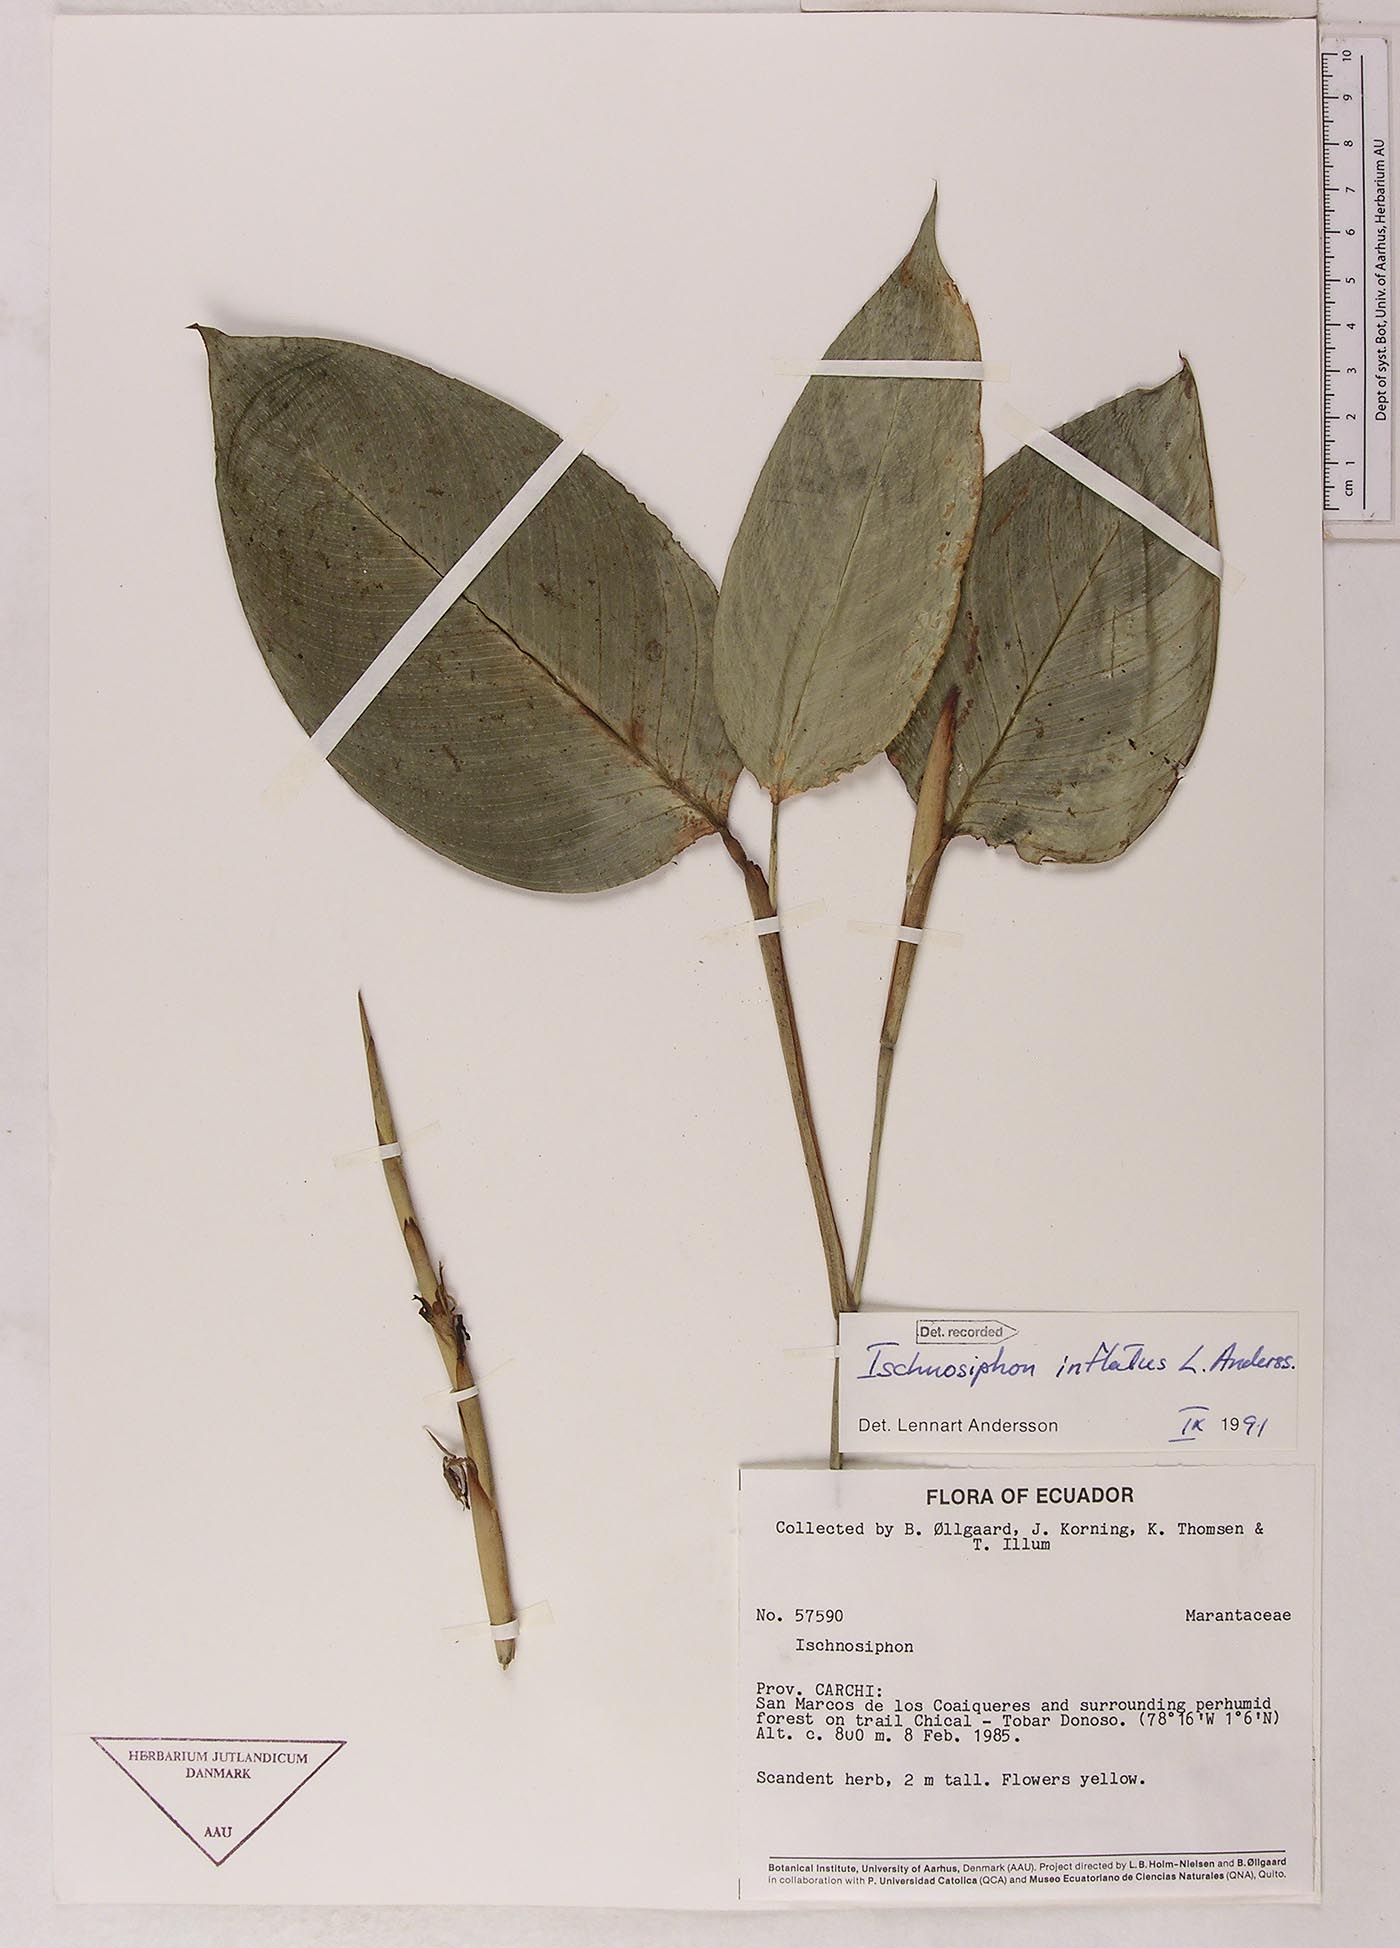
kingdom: Plantae
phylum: Tracheophyta
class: Liliopsida
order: Zingiberales
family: Marantaceae
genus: Ischnosiphon
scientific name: Ischnosiphon inflatus
